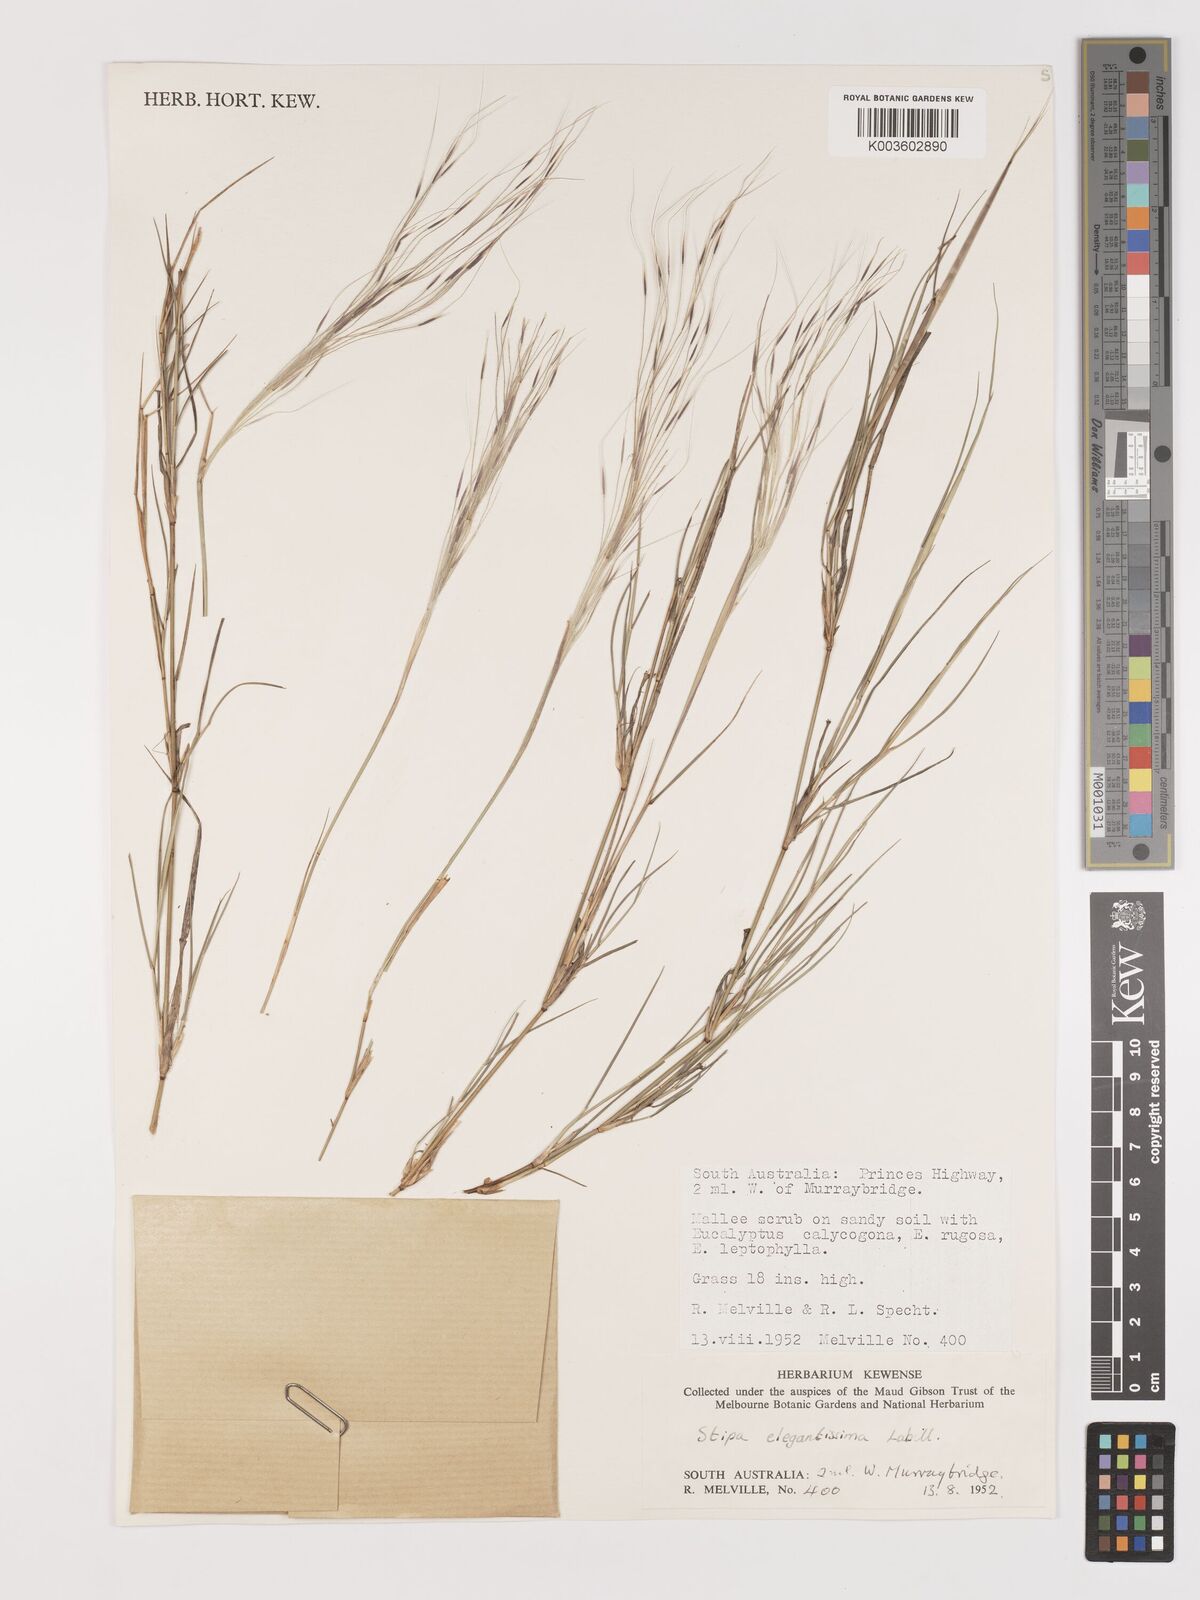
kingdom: Plantae
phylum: Tracheophyta
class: Liliopsida
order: Poales
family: Poaceae
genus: Austrostipa
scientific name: Austrostipa elegantissima
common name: Feather spear grass
